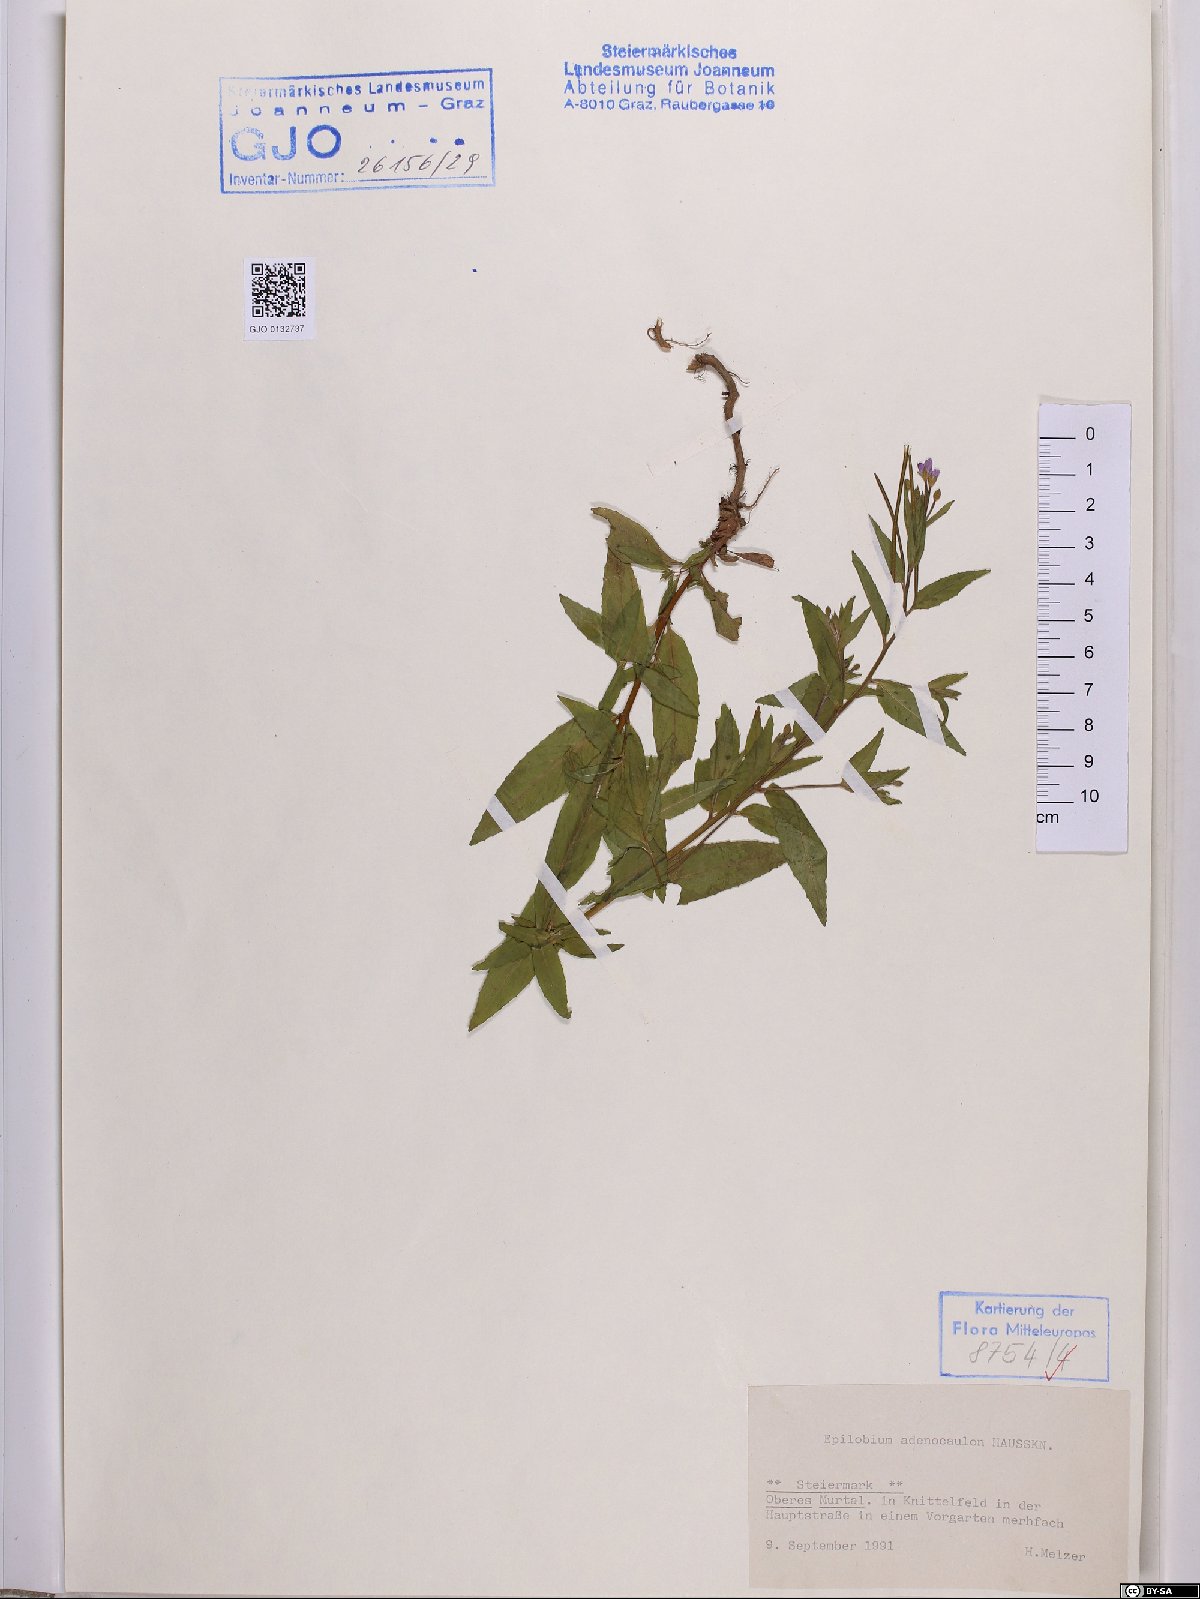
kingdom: Plantae
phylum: Tracheophyta
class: Magnoliopsida
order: Myrtales
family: Onagraceae
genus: Epilobium
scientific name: Epilobium ciliatum
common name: American willowherb
